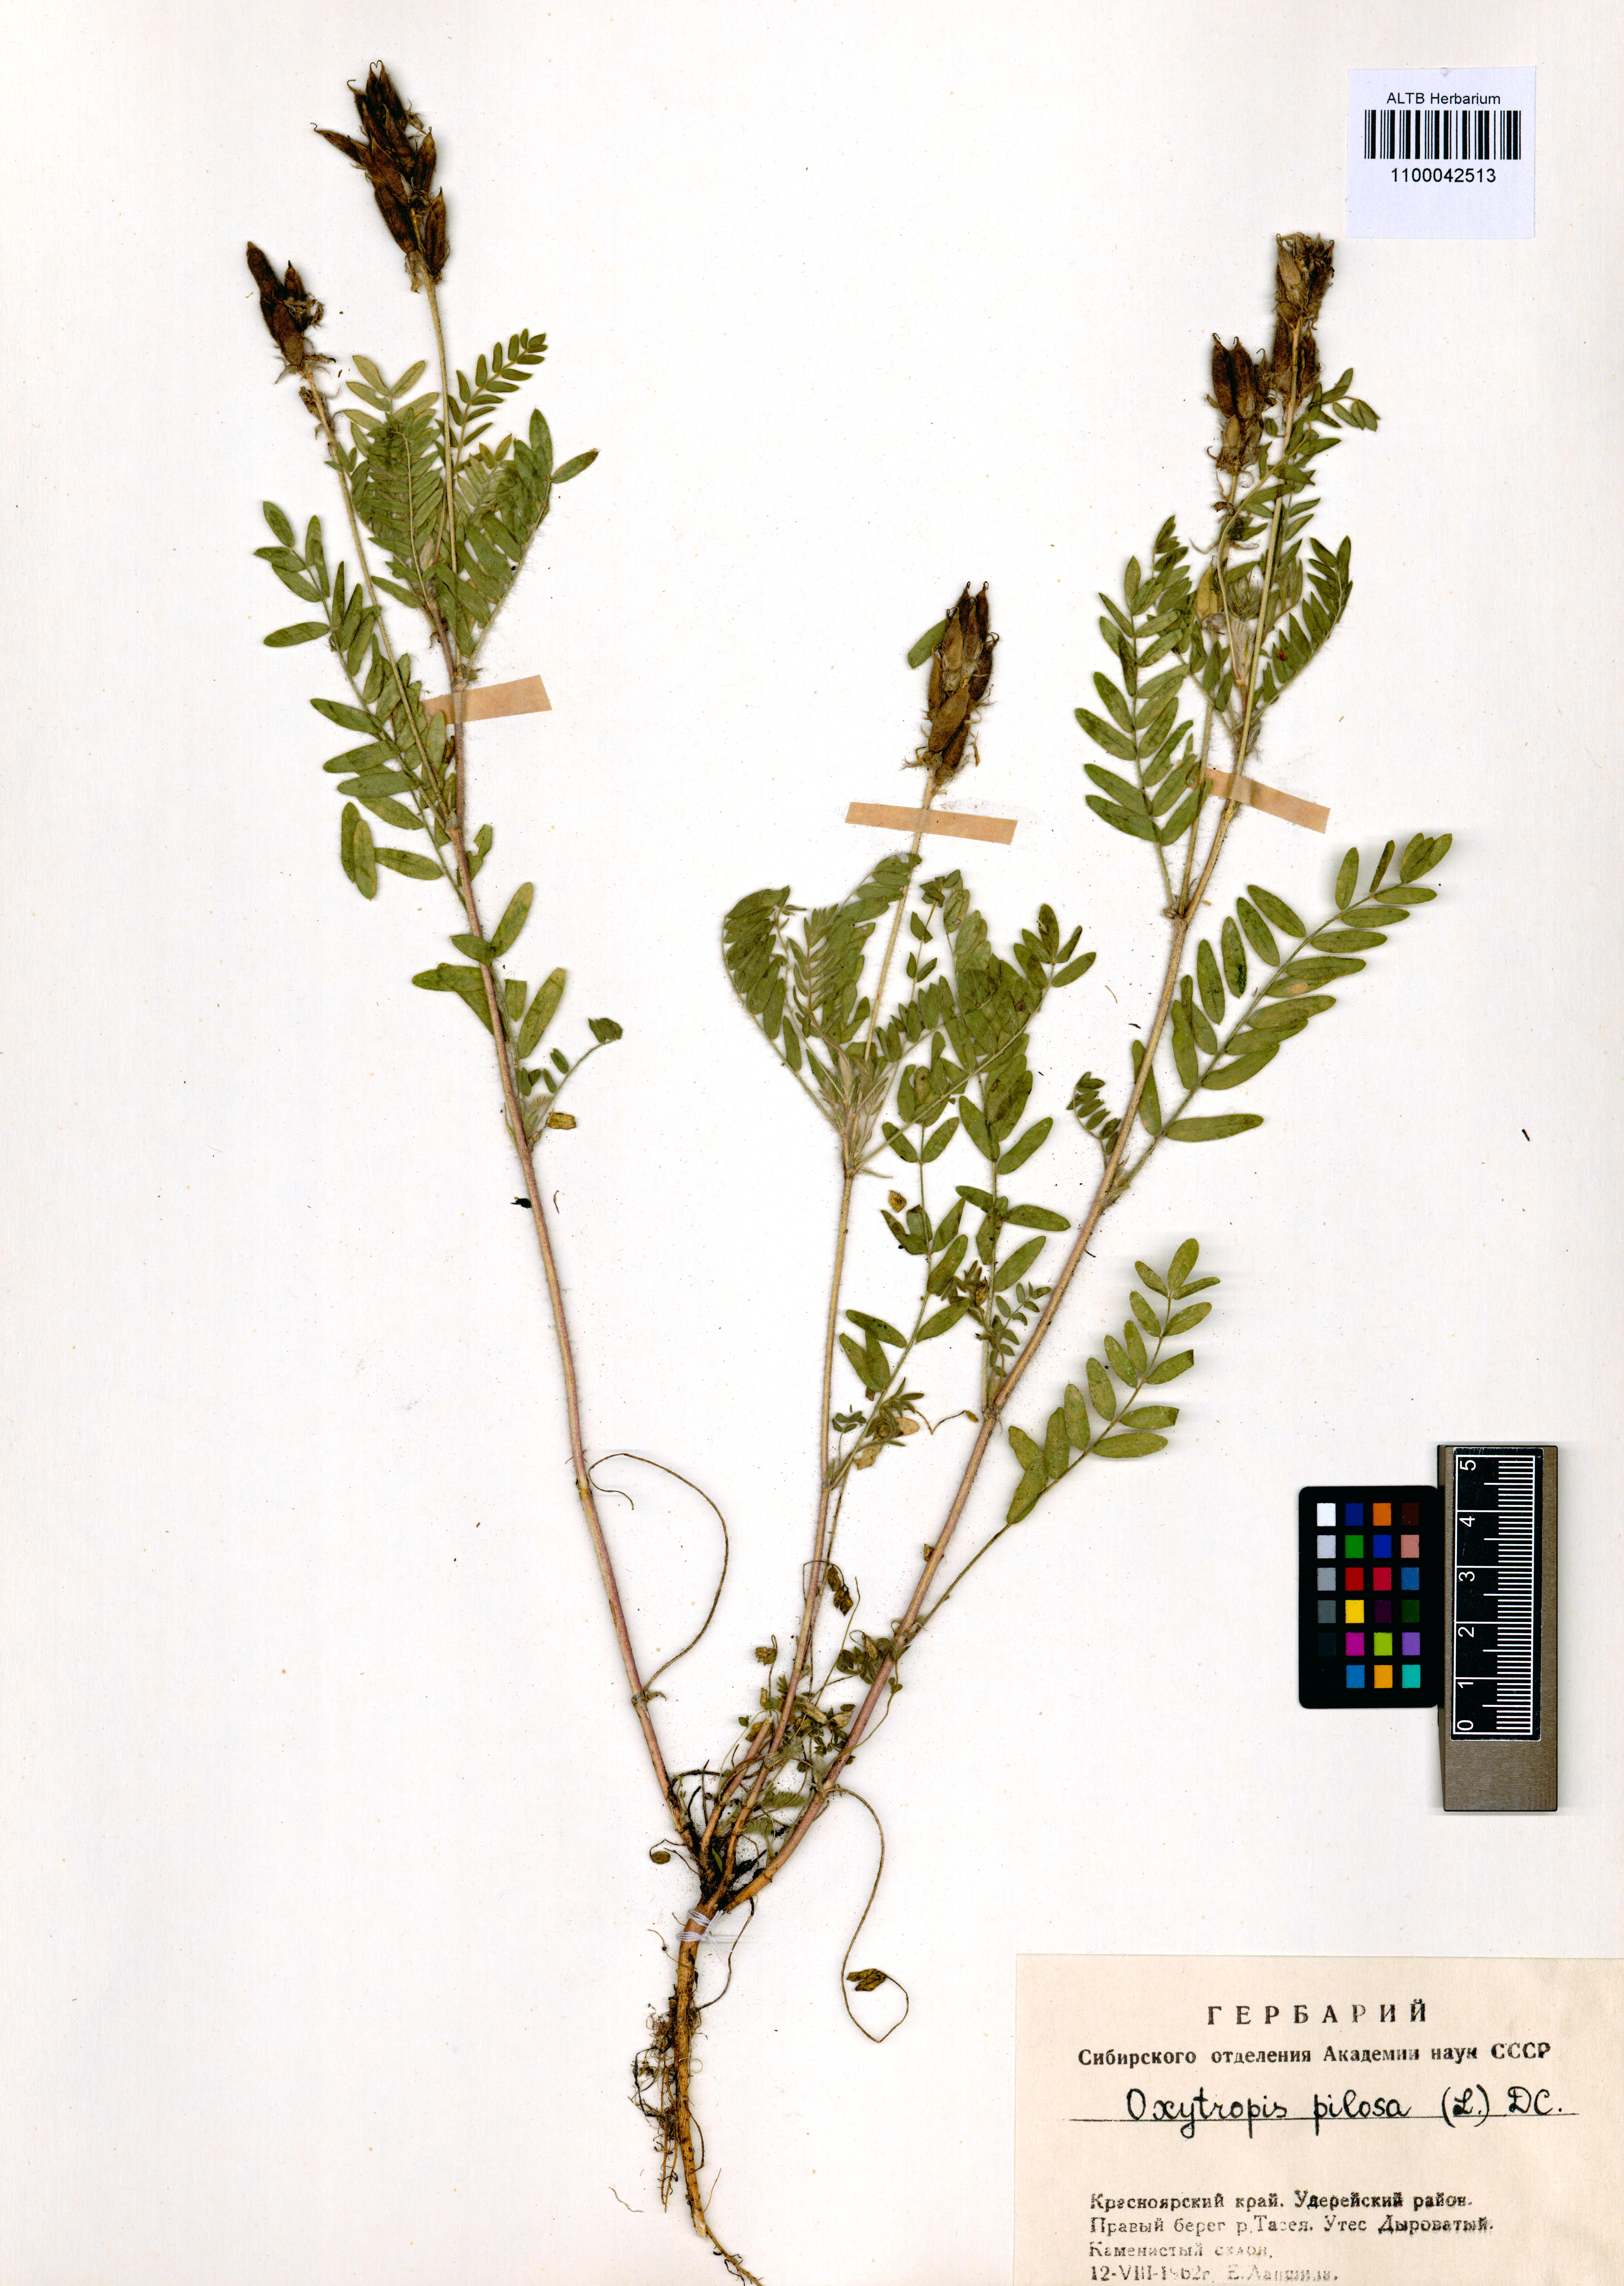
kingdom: Plantae
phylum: Tracheophyta
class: Magnoliopsida
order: Fabales
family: Fabaceae
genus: Oxytropis
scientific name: Oxytropis pilosa
